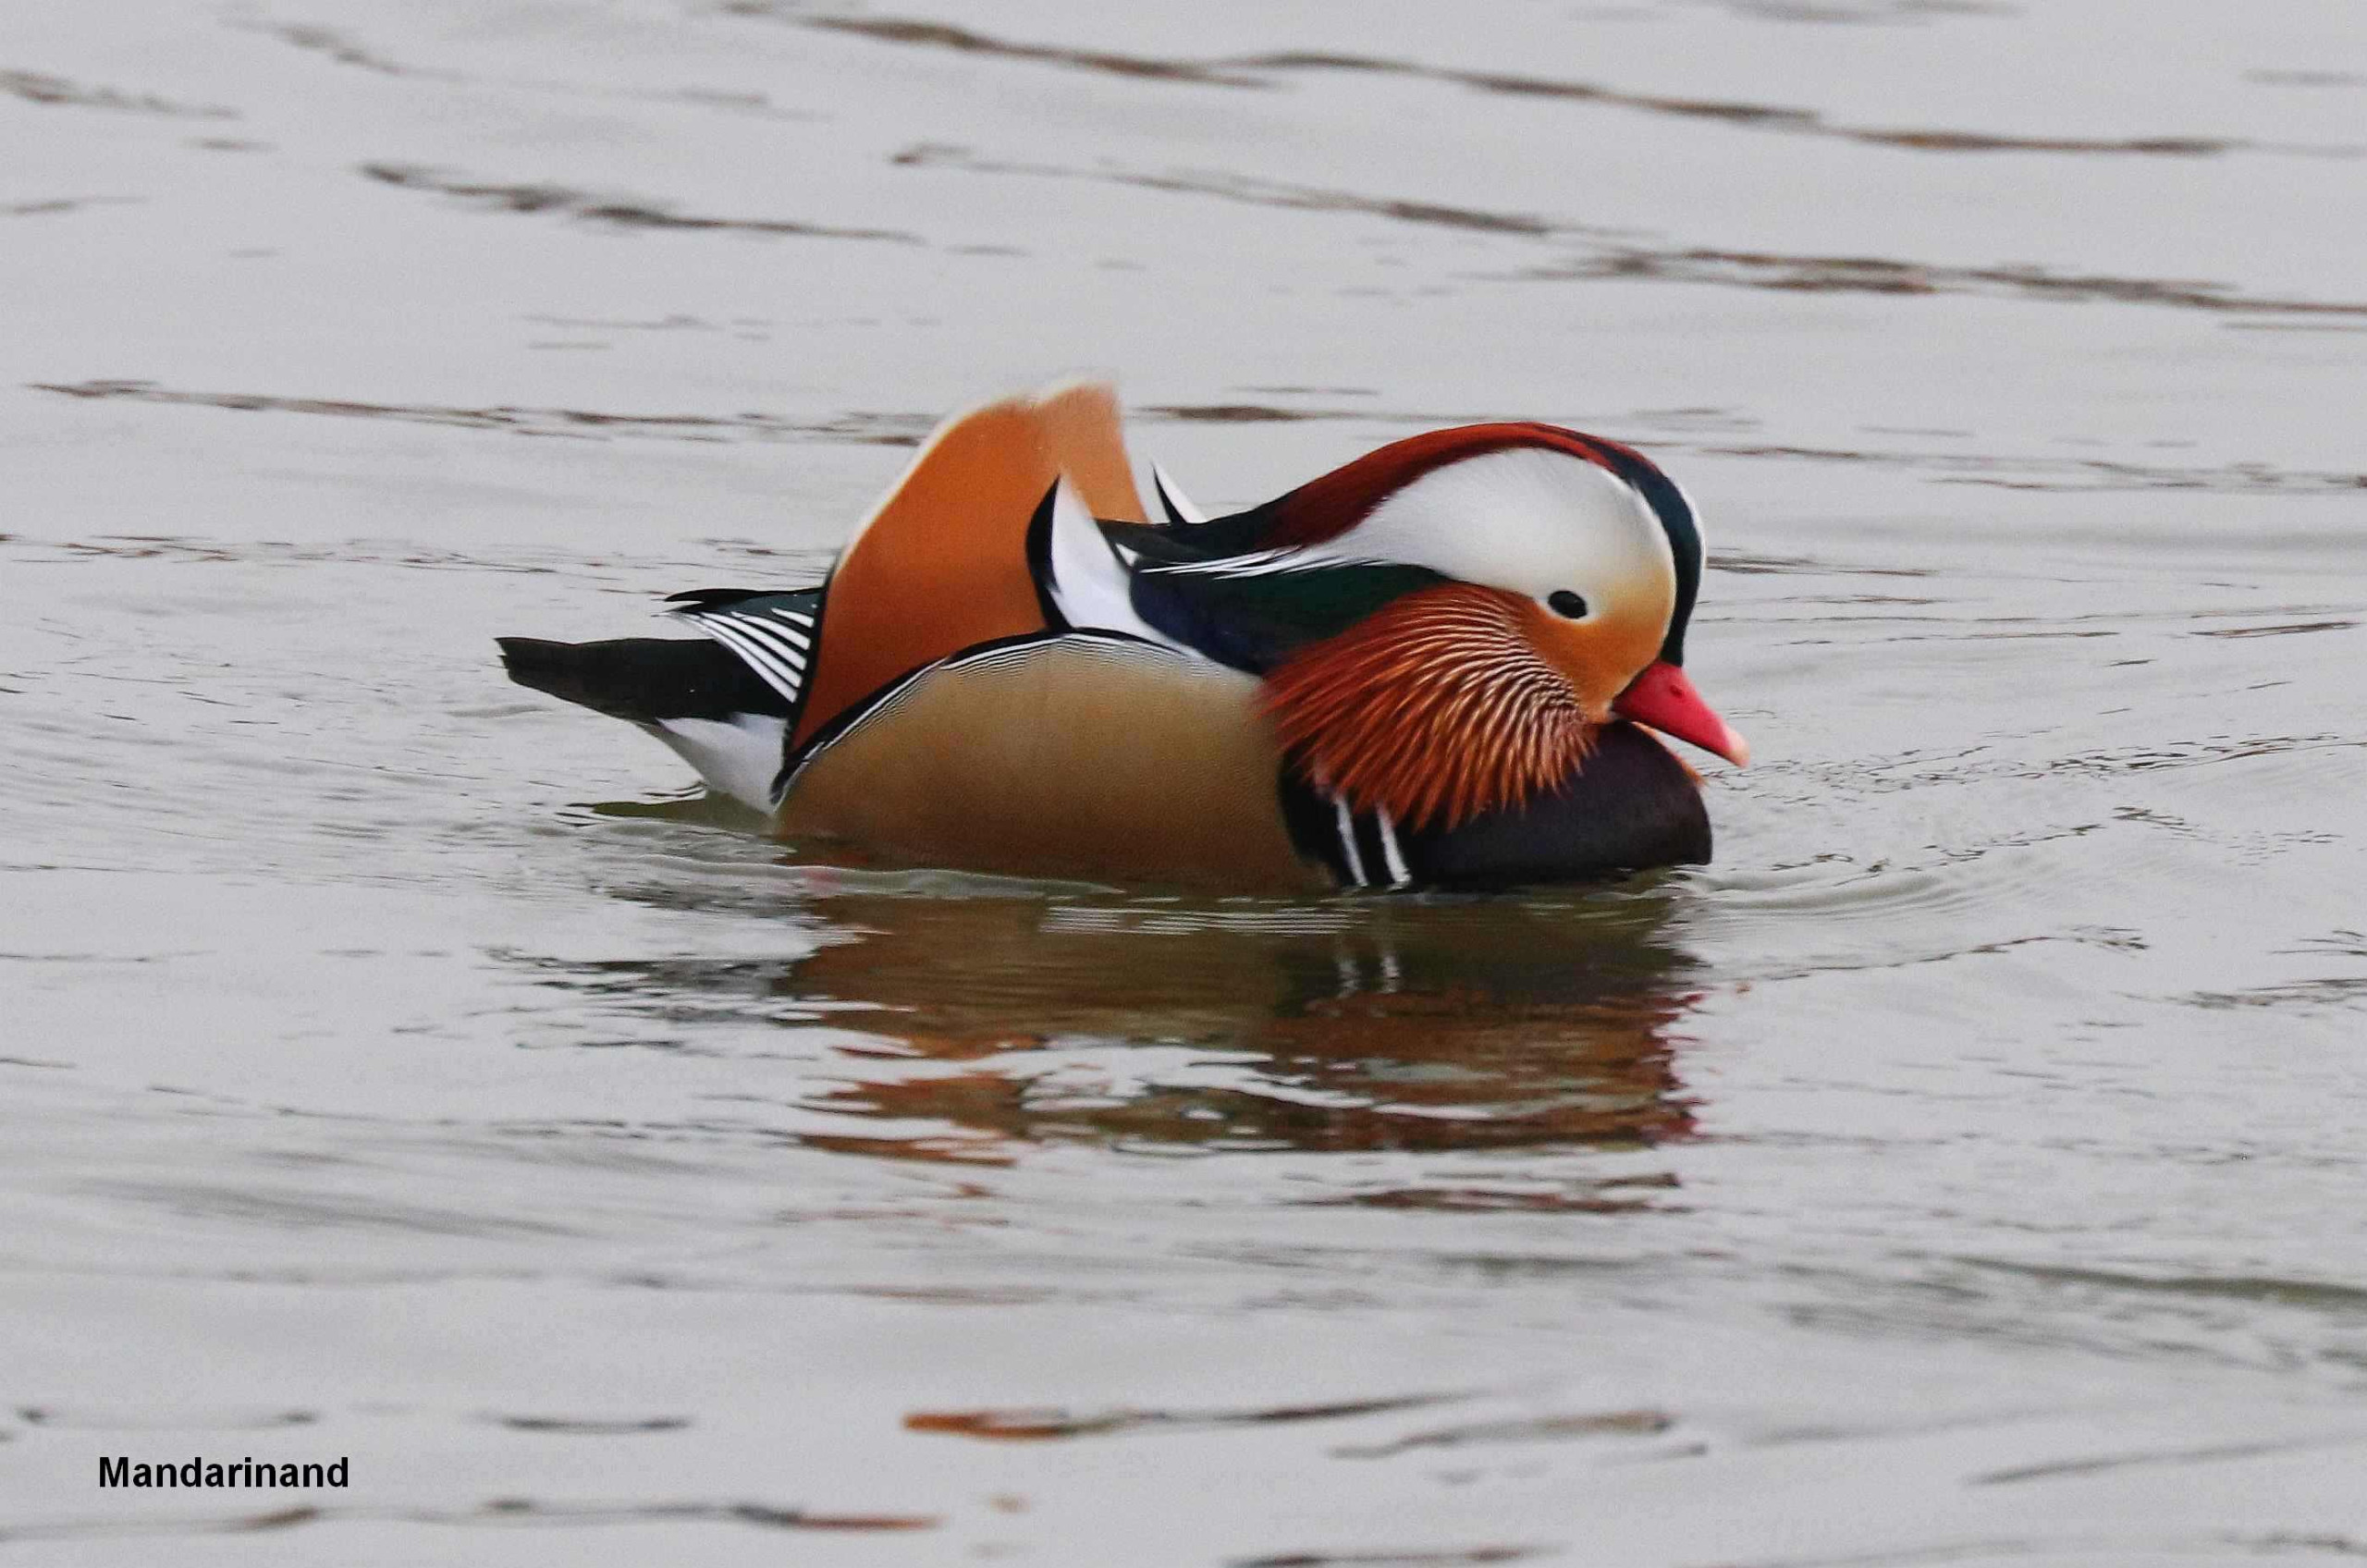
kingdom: Animalia
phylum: Chordata
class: Aves
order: Anseriformes
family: Anatidae
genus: Aix
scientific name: Aix galericulata
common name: Mandarinand
